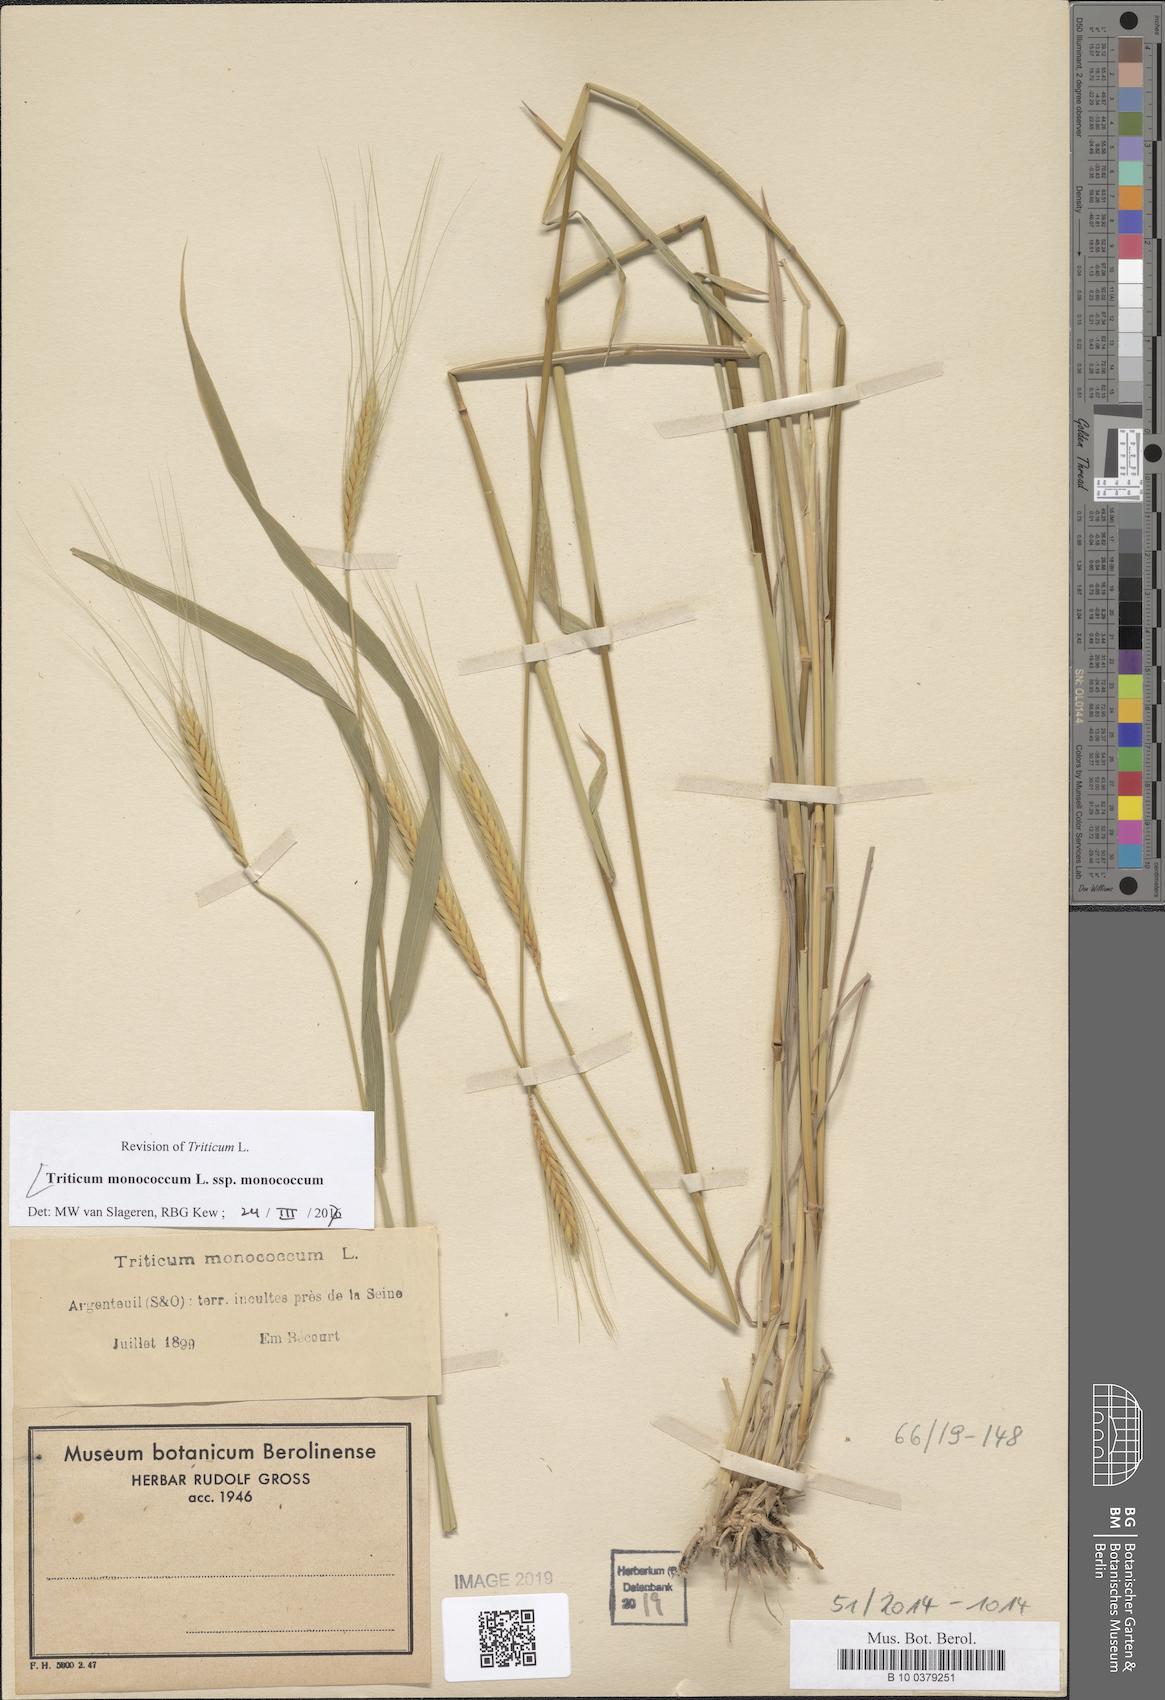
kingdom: Plantae
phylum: Tracheophyta
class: Liliopsida
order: Poales
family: Poaceae
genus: Triticum
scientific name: Triticum monococcum
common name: Einkorn
